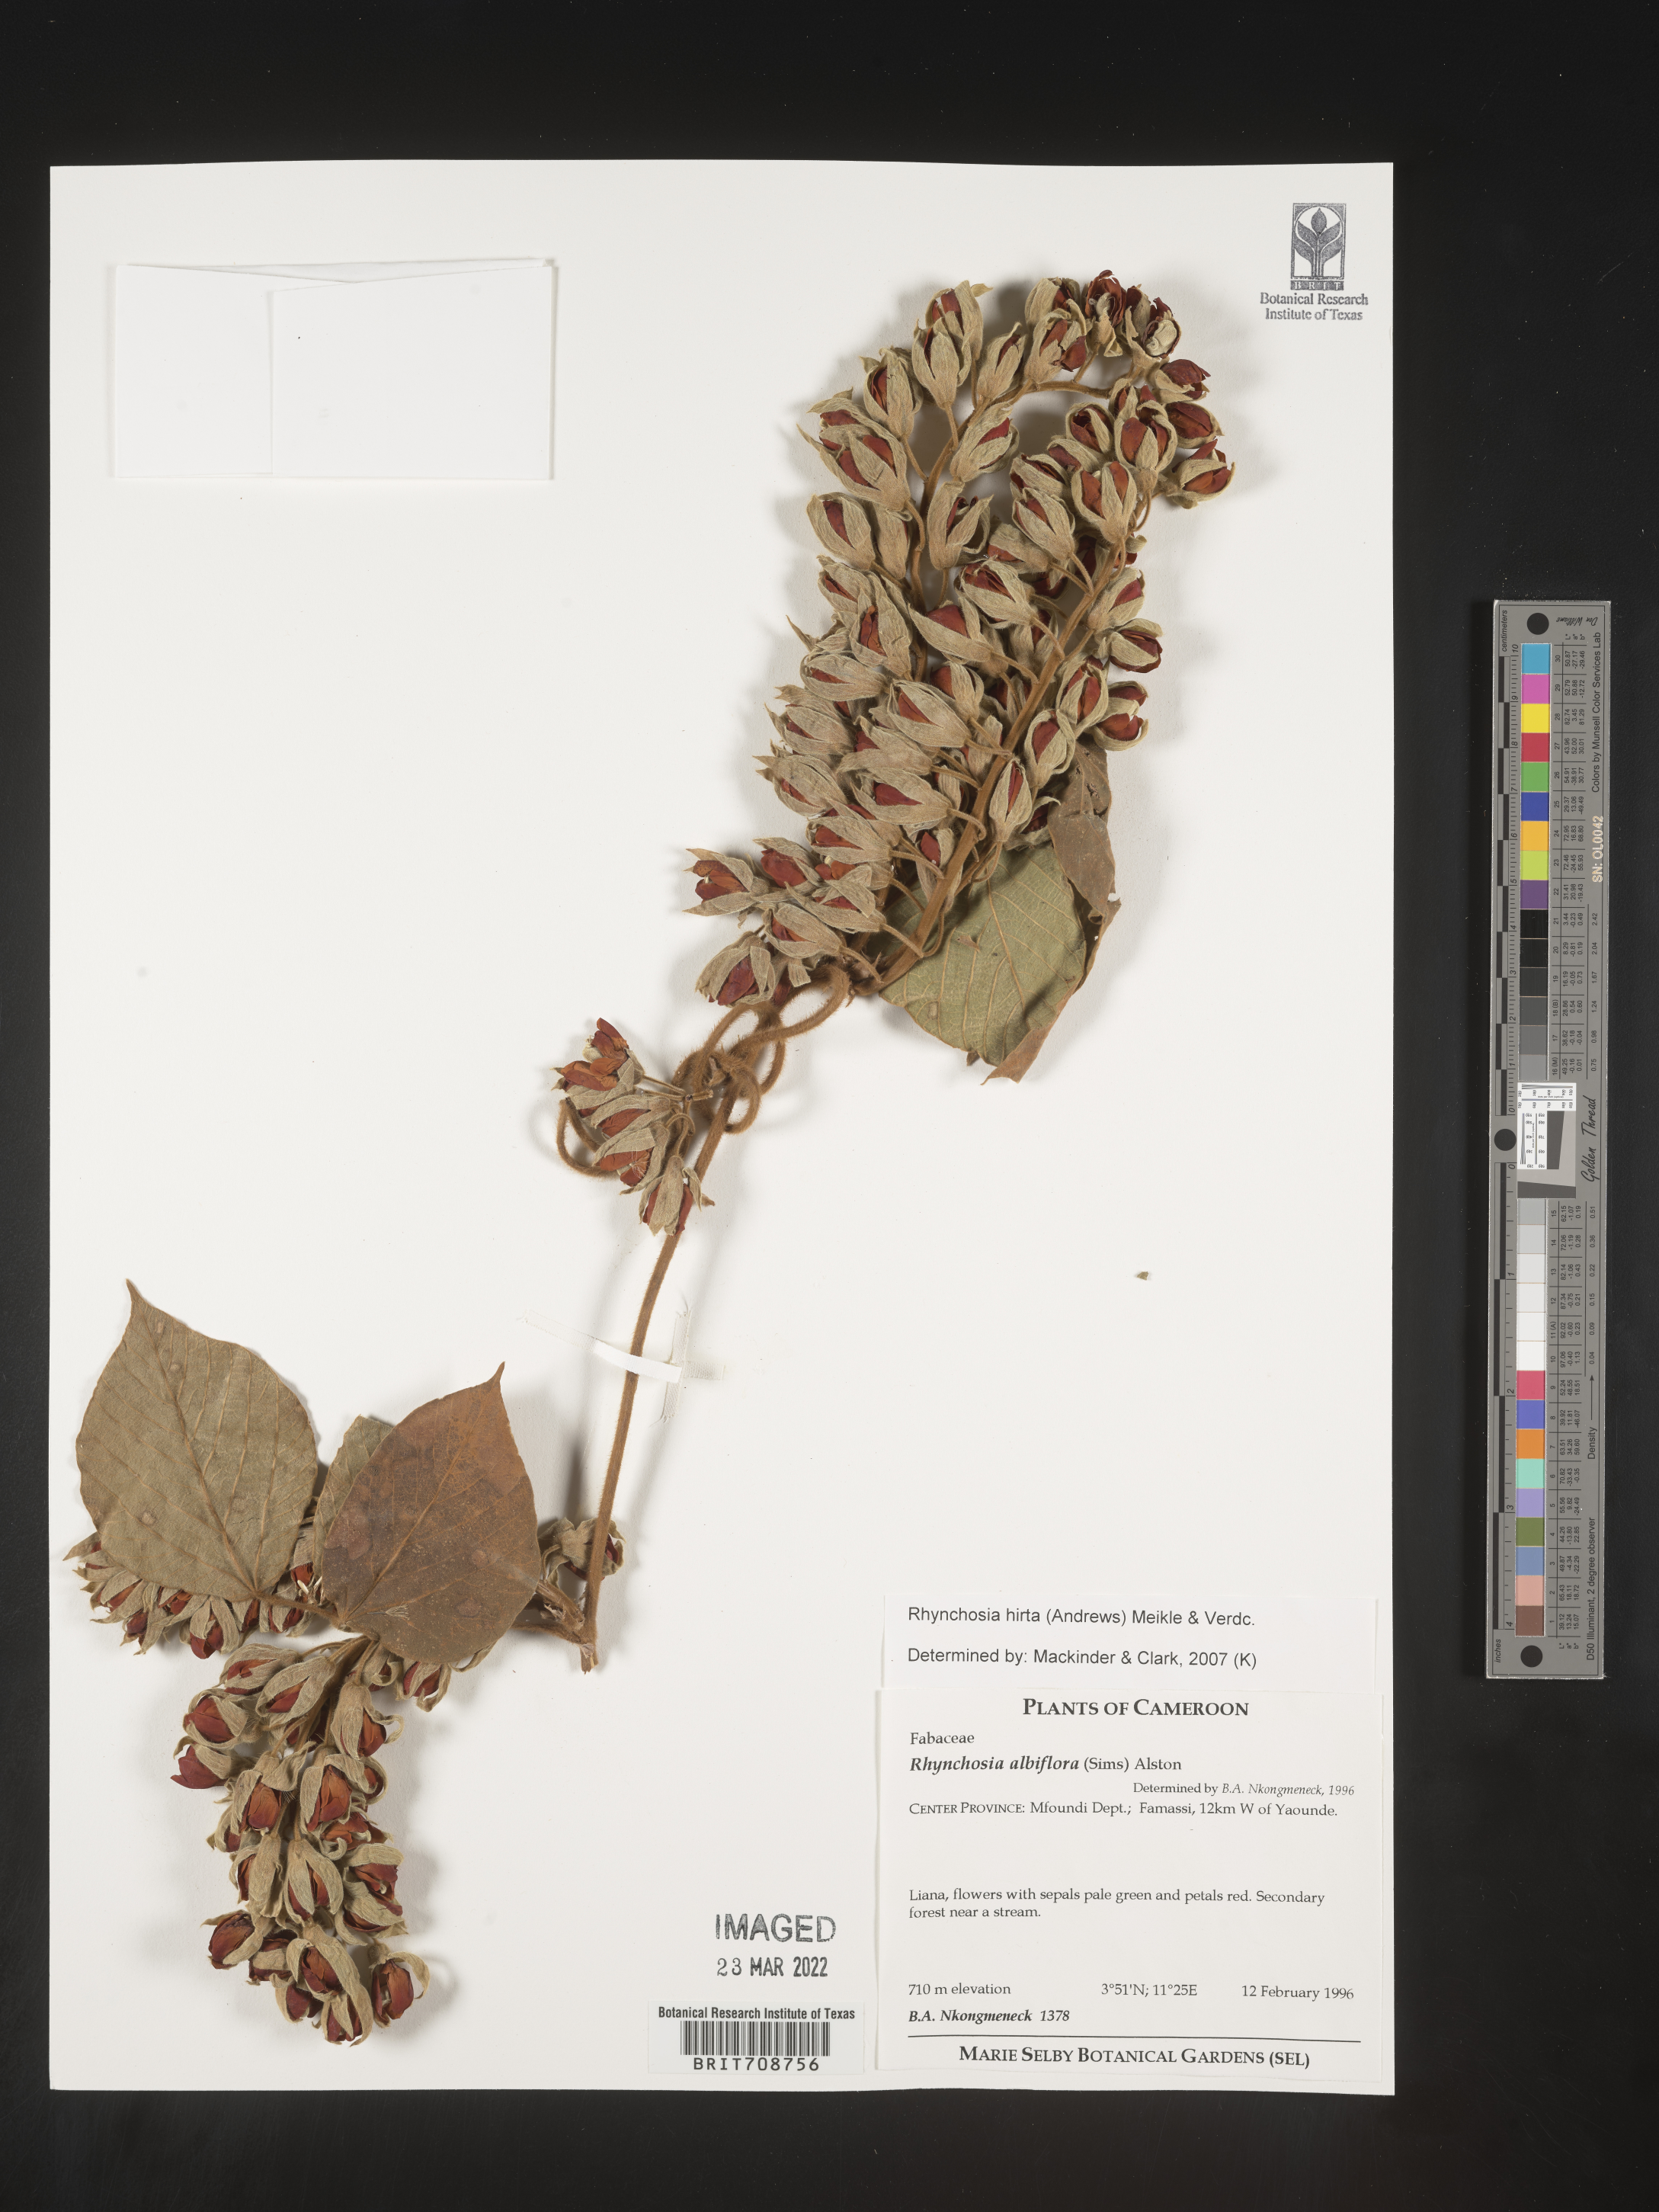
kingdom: Plantae
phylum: Tracheophyta
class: Magnoliopsida
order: Fabales
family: Fabaceae
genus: Rhynchosia
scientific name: Rhynchosia
